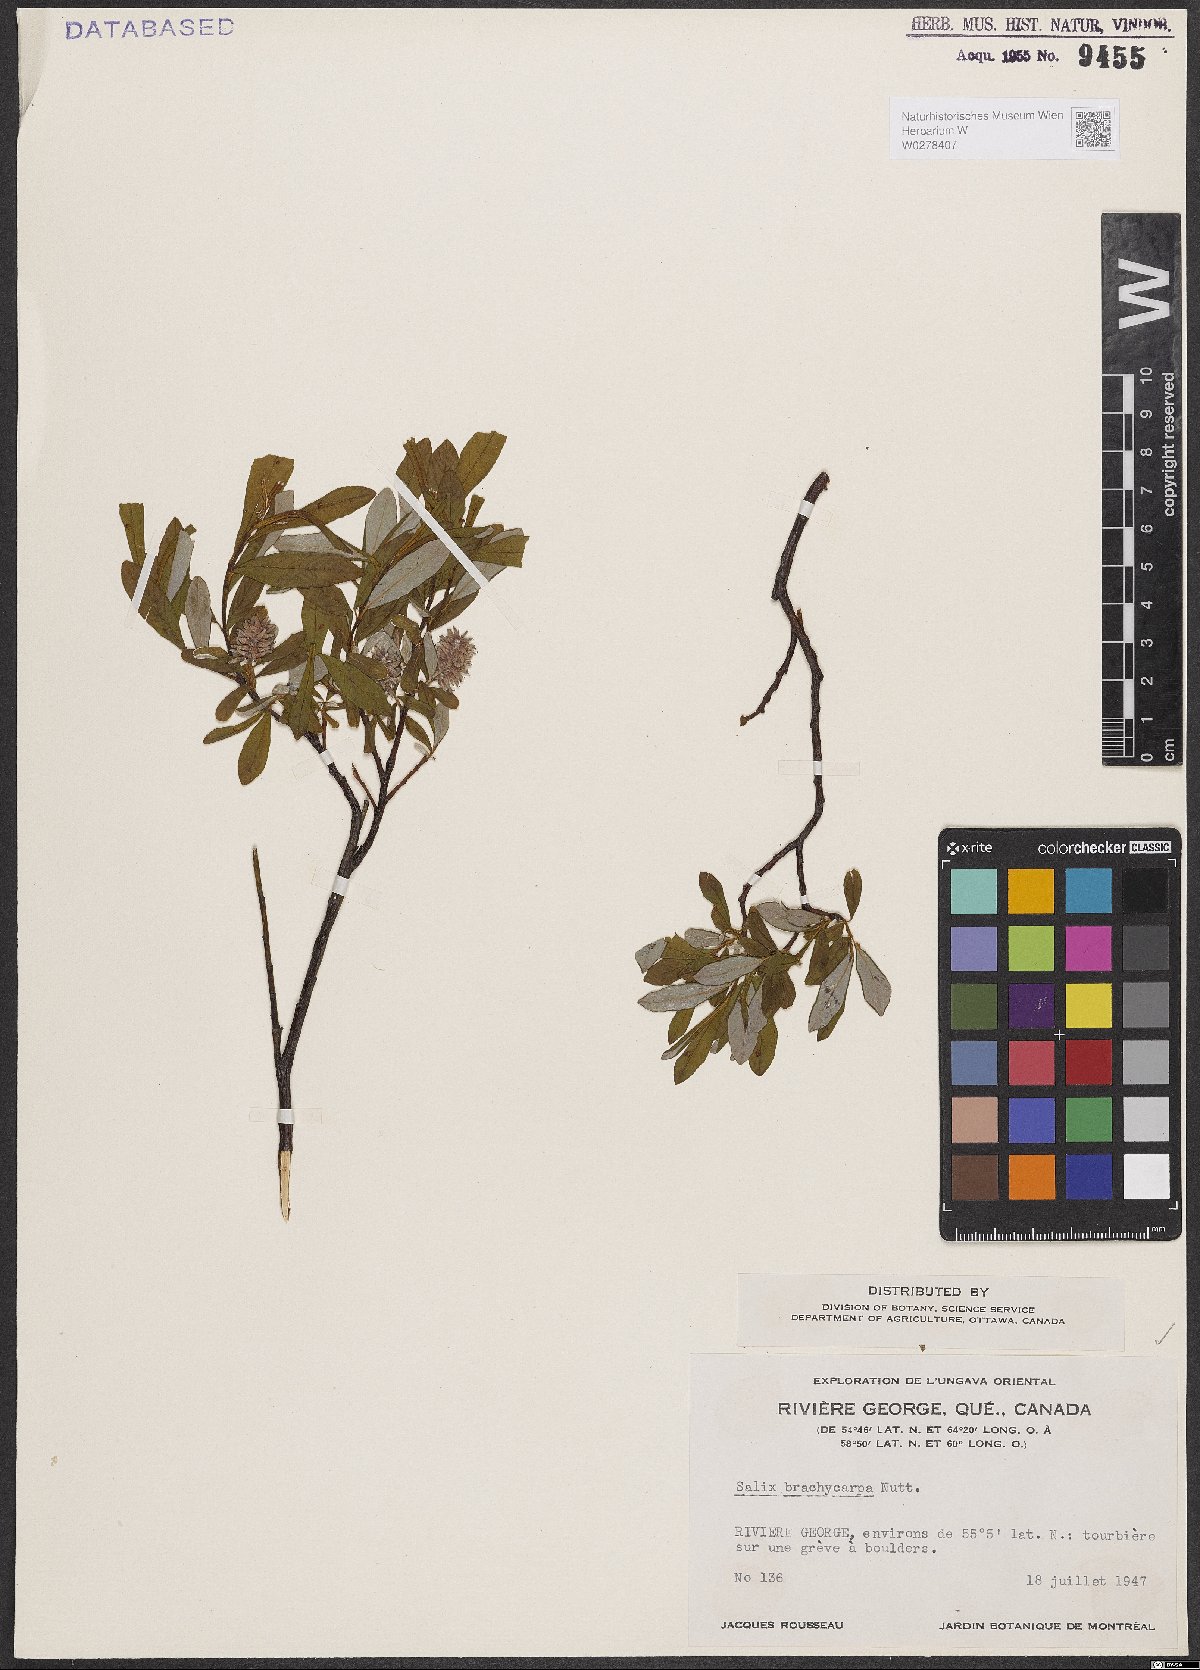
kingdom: Plantae
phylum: Tracheophyta
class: Magnoliopsida
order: Malpighiales
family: Salicaceae
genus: Salix
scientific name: Salix brachycarpa
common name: Barren-ground willow
